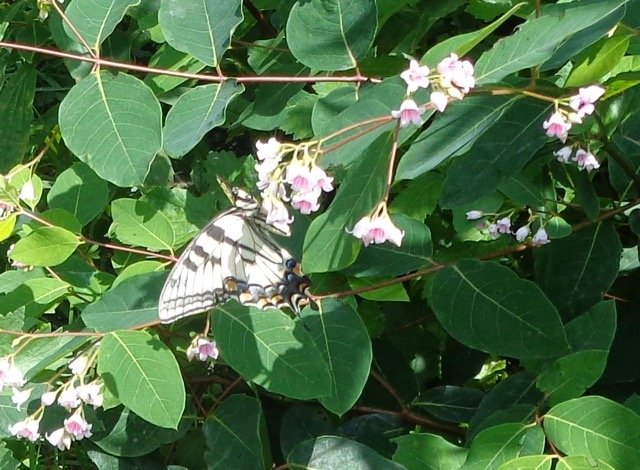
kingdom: Animalia
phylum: Arthropoda
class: Insecta
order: Lepidoptera
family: Papilionidae
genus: Pterourus
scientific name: Pterourus
